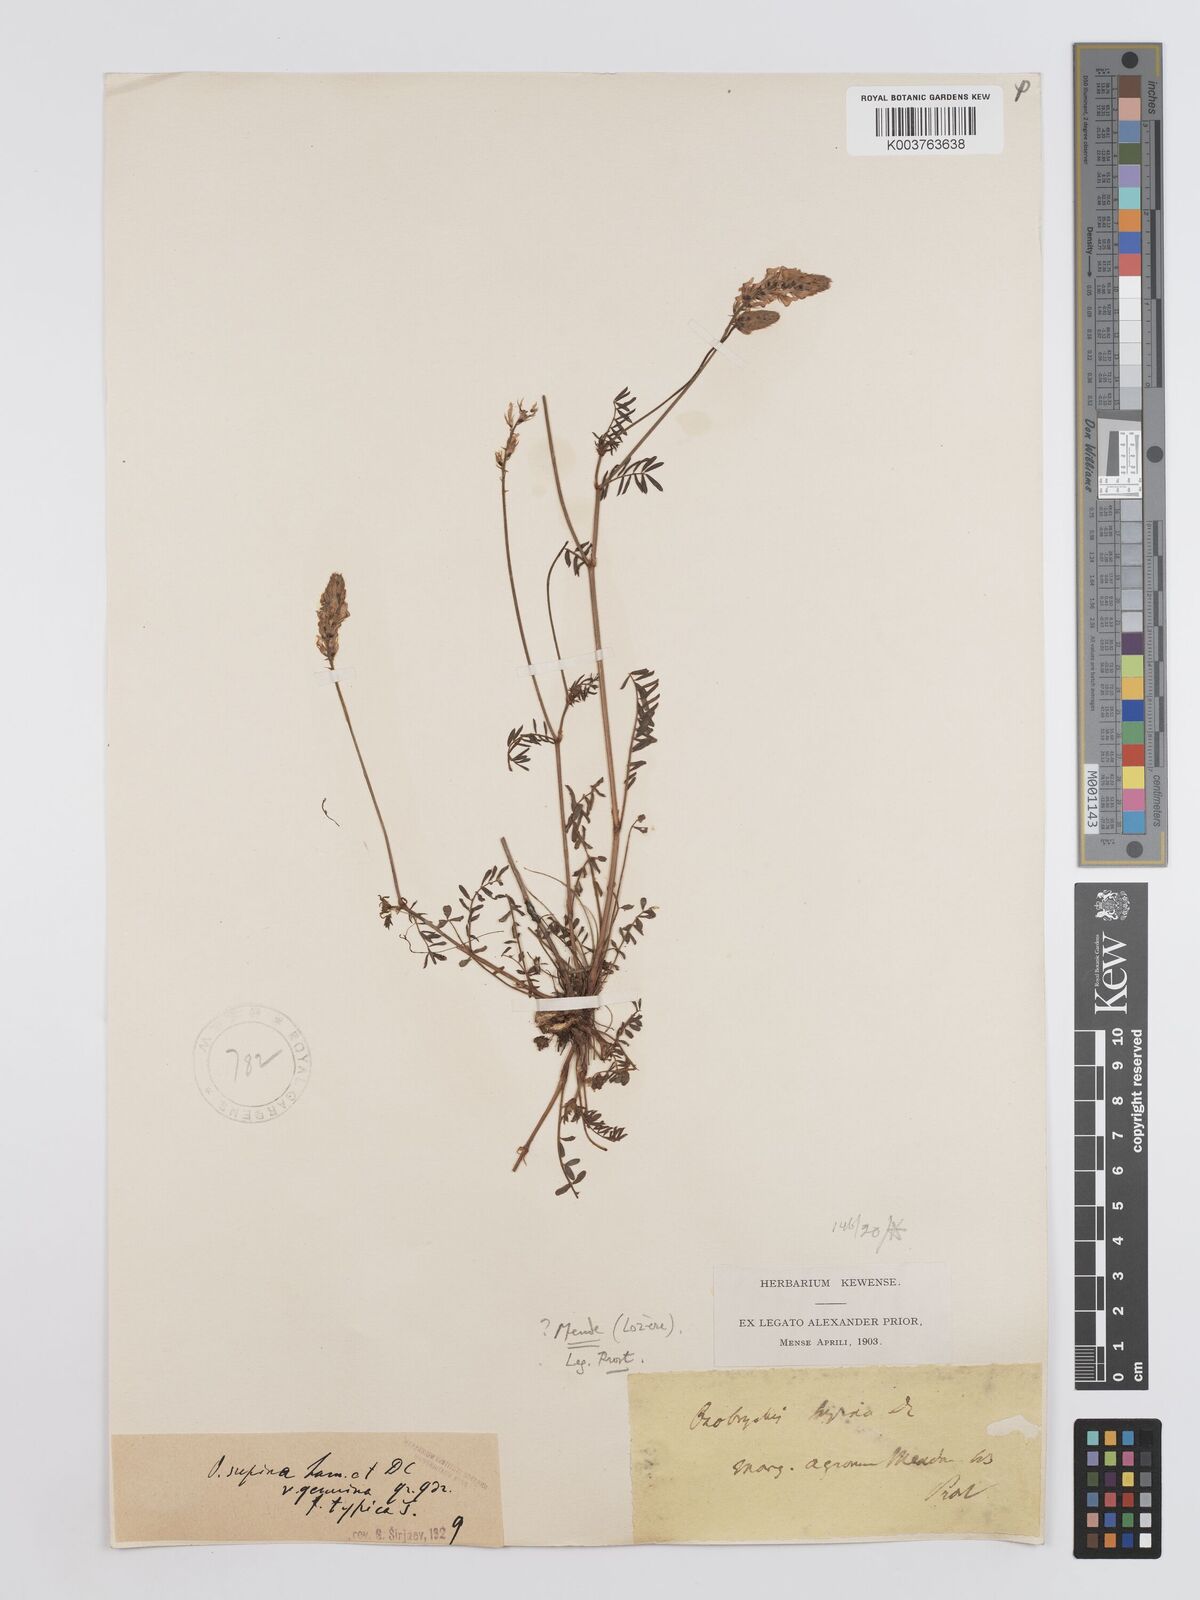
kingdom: Plantae
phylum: Tracheophyta
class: Magnoliopsida
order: Fabales
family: Fabaceae
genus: Onobrychis
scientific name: Onobrychis supina
